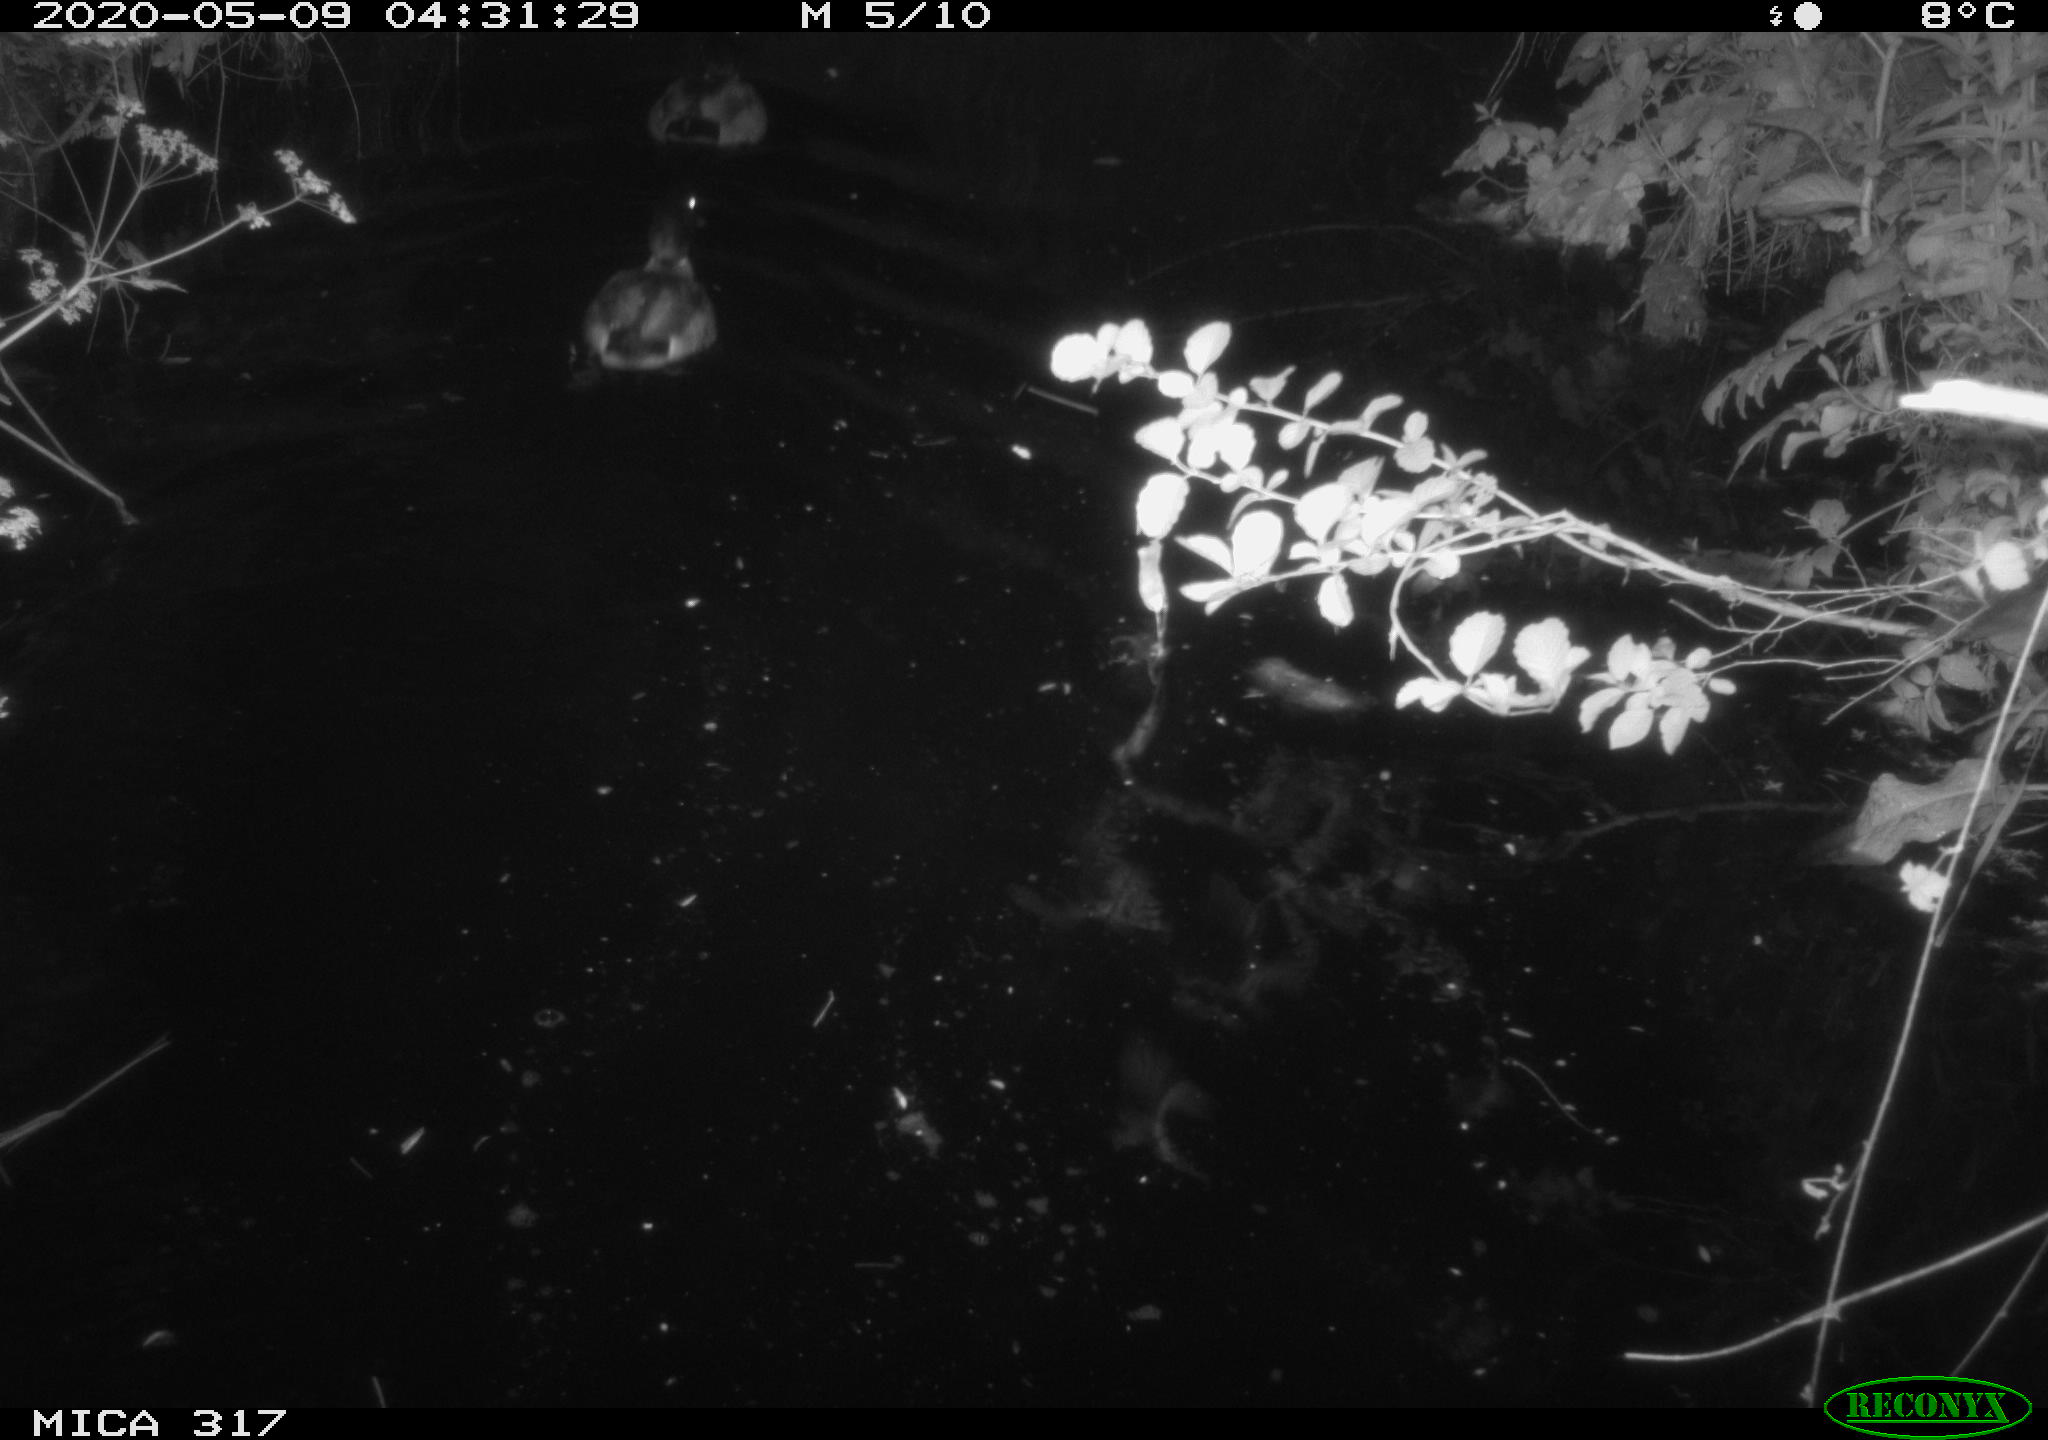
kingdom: Animalia
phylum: Chordata
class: Aves
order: Anseriformes
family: Anatidae
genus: Anas
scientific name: Anas platyrhynchos
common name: Mallard
